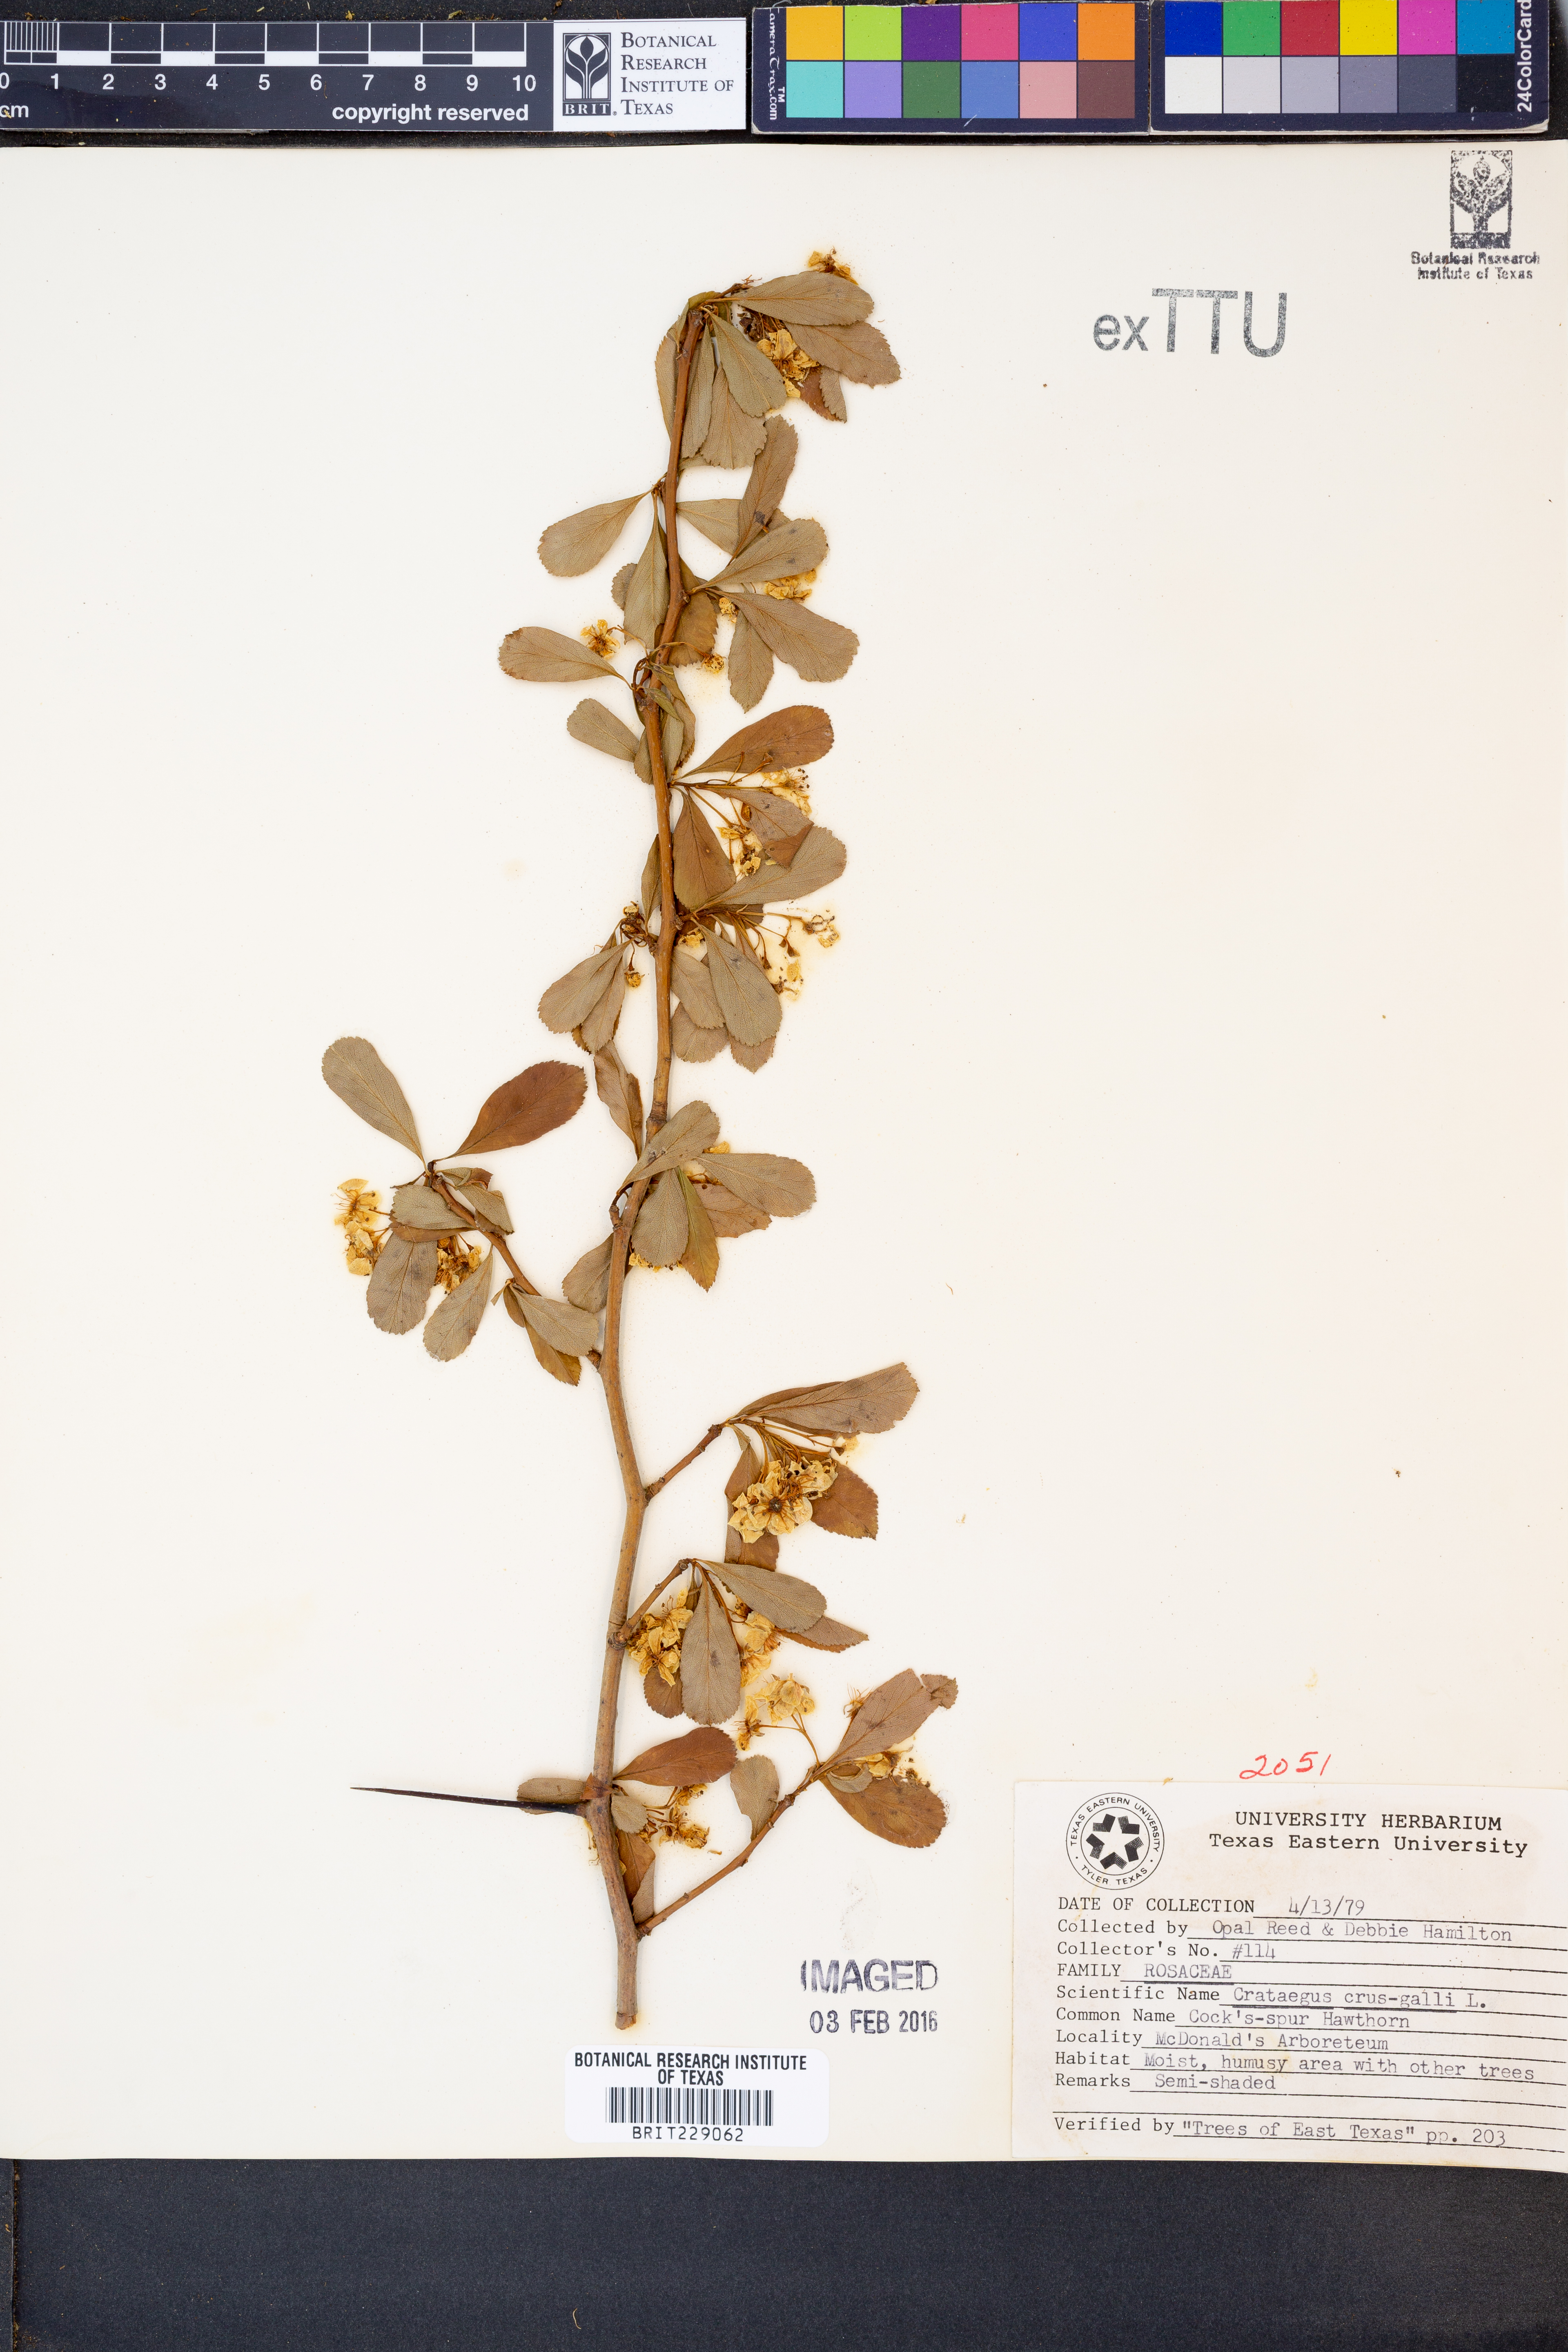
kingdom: Plantae
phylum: Tracheophyta
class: Magnoliopsida
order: Rosales
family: Rosaceae
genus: Crataegus
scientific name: Crataegus crus-galli
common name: Cockspurthorn
